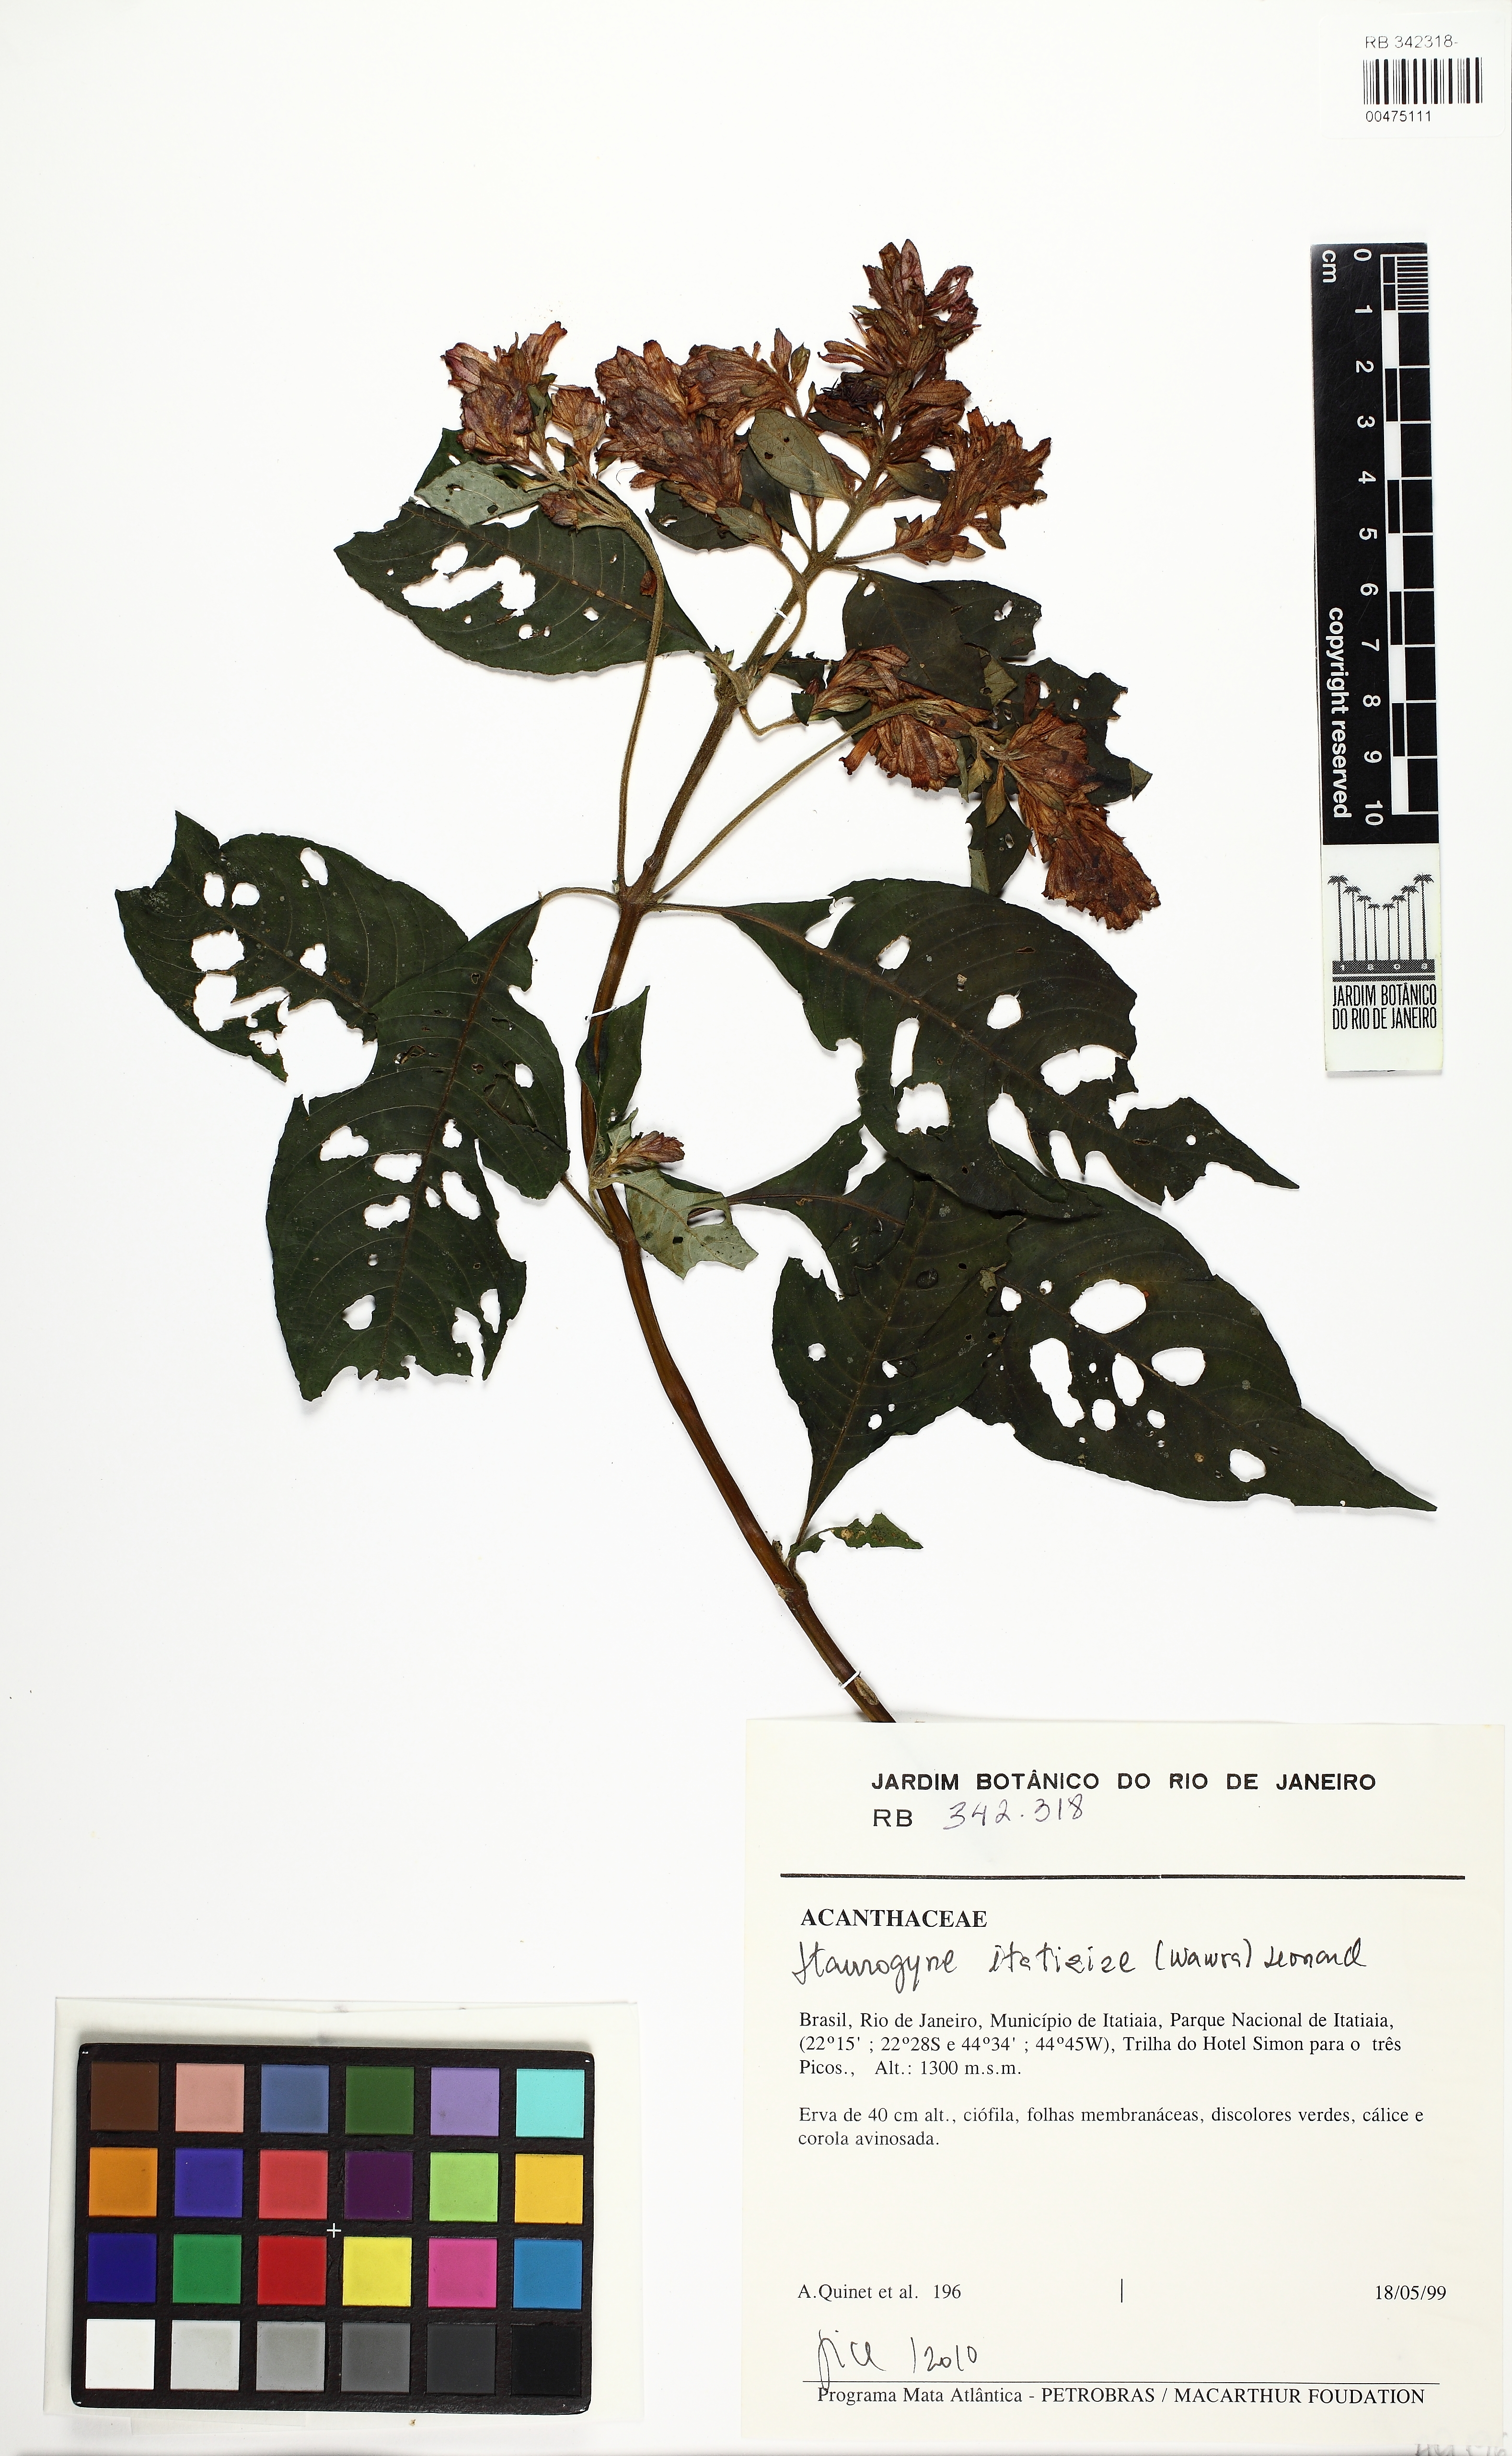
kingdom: Plantae
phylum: Tracheophyta
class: Magnoliopsida
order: Lamiales
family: Acanthaceae
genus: Staurogyne
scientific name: Staurogyne itatiaiae
